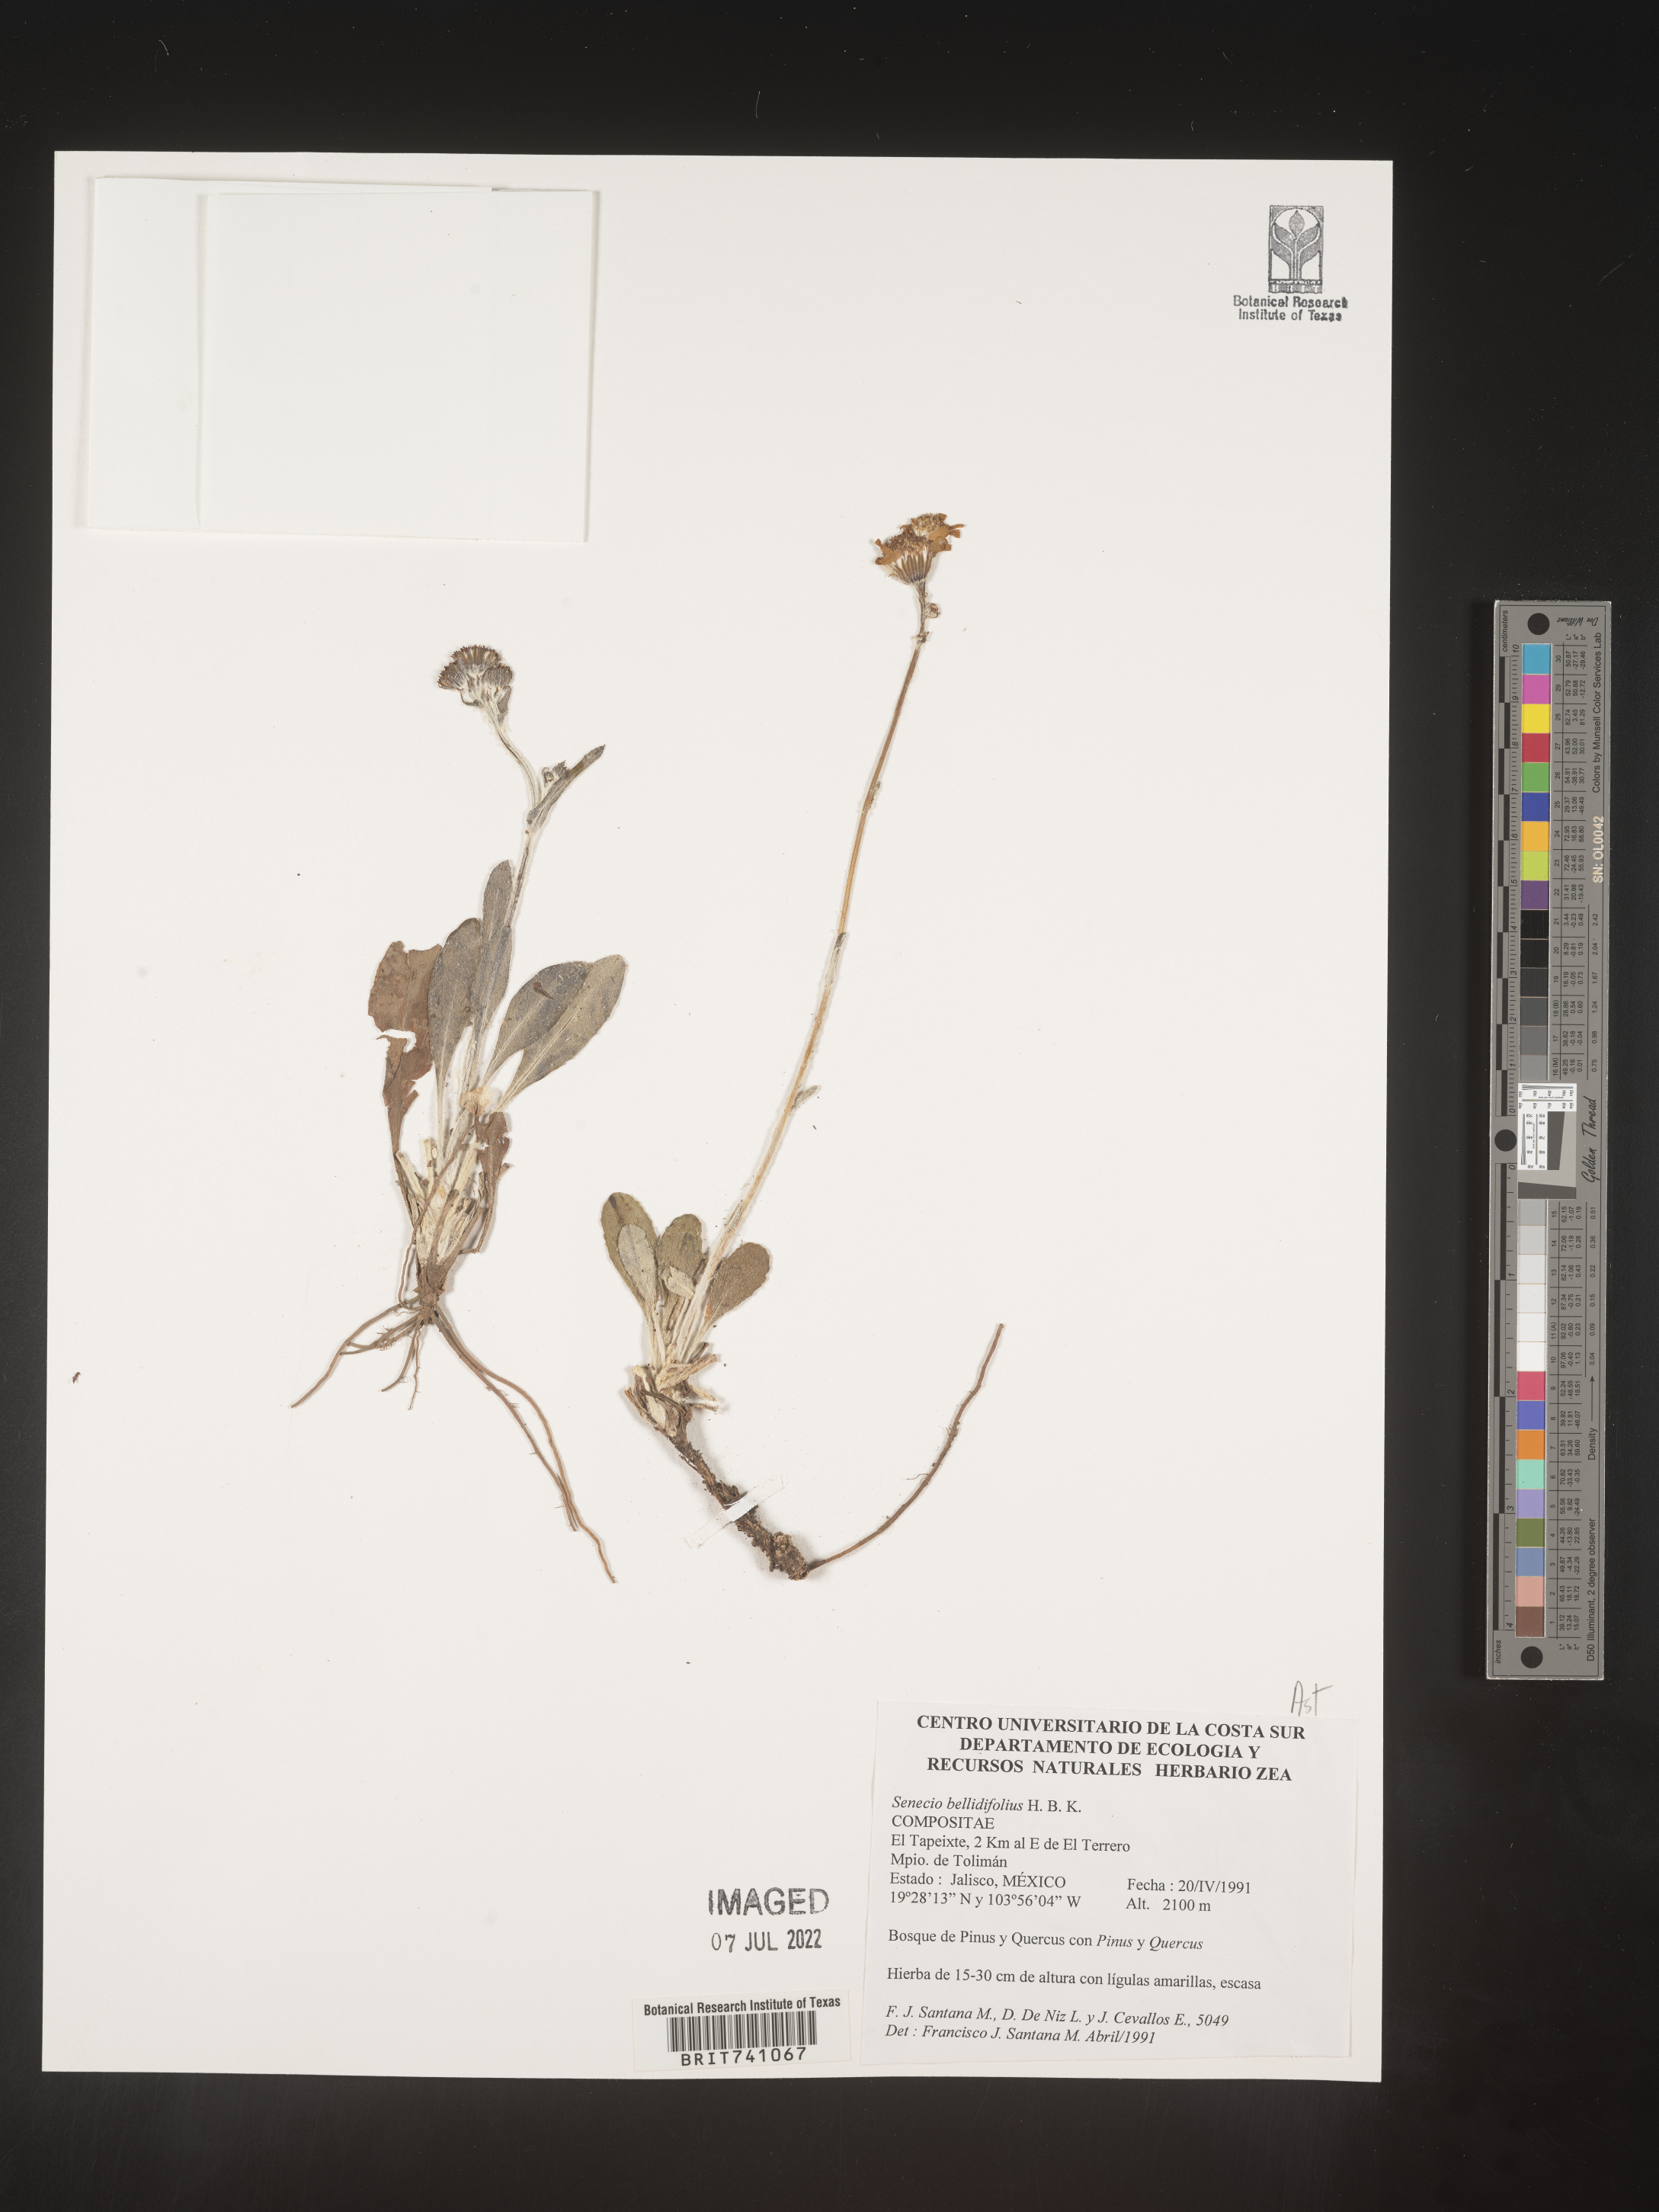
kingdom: Plantae
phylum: Tracheophyta
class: Magnoliopsida
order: Asterales
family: Asteraceae
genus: Senecio
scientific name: Senecio
